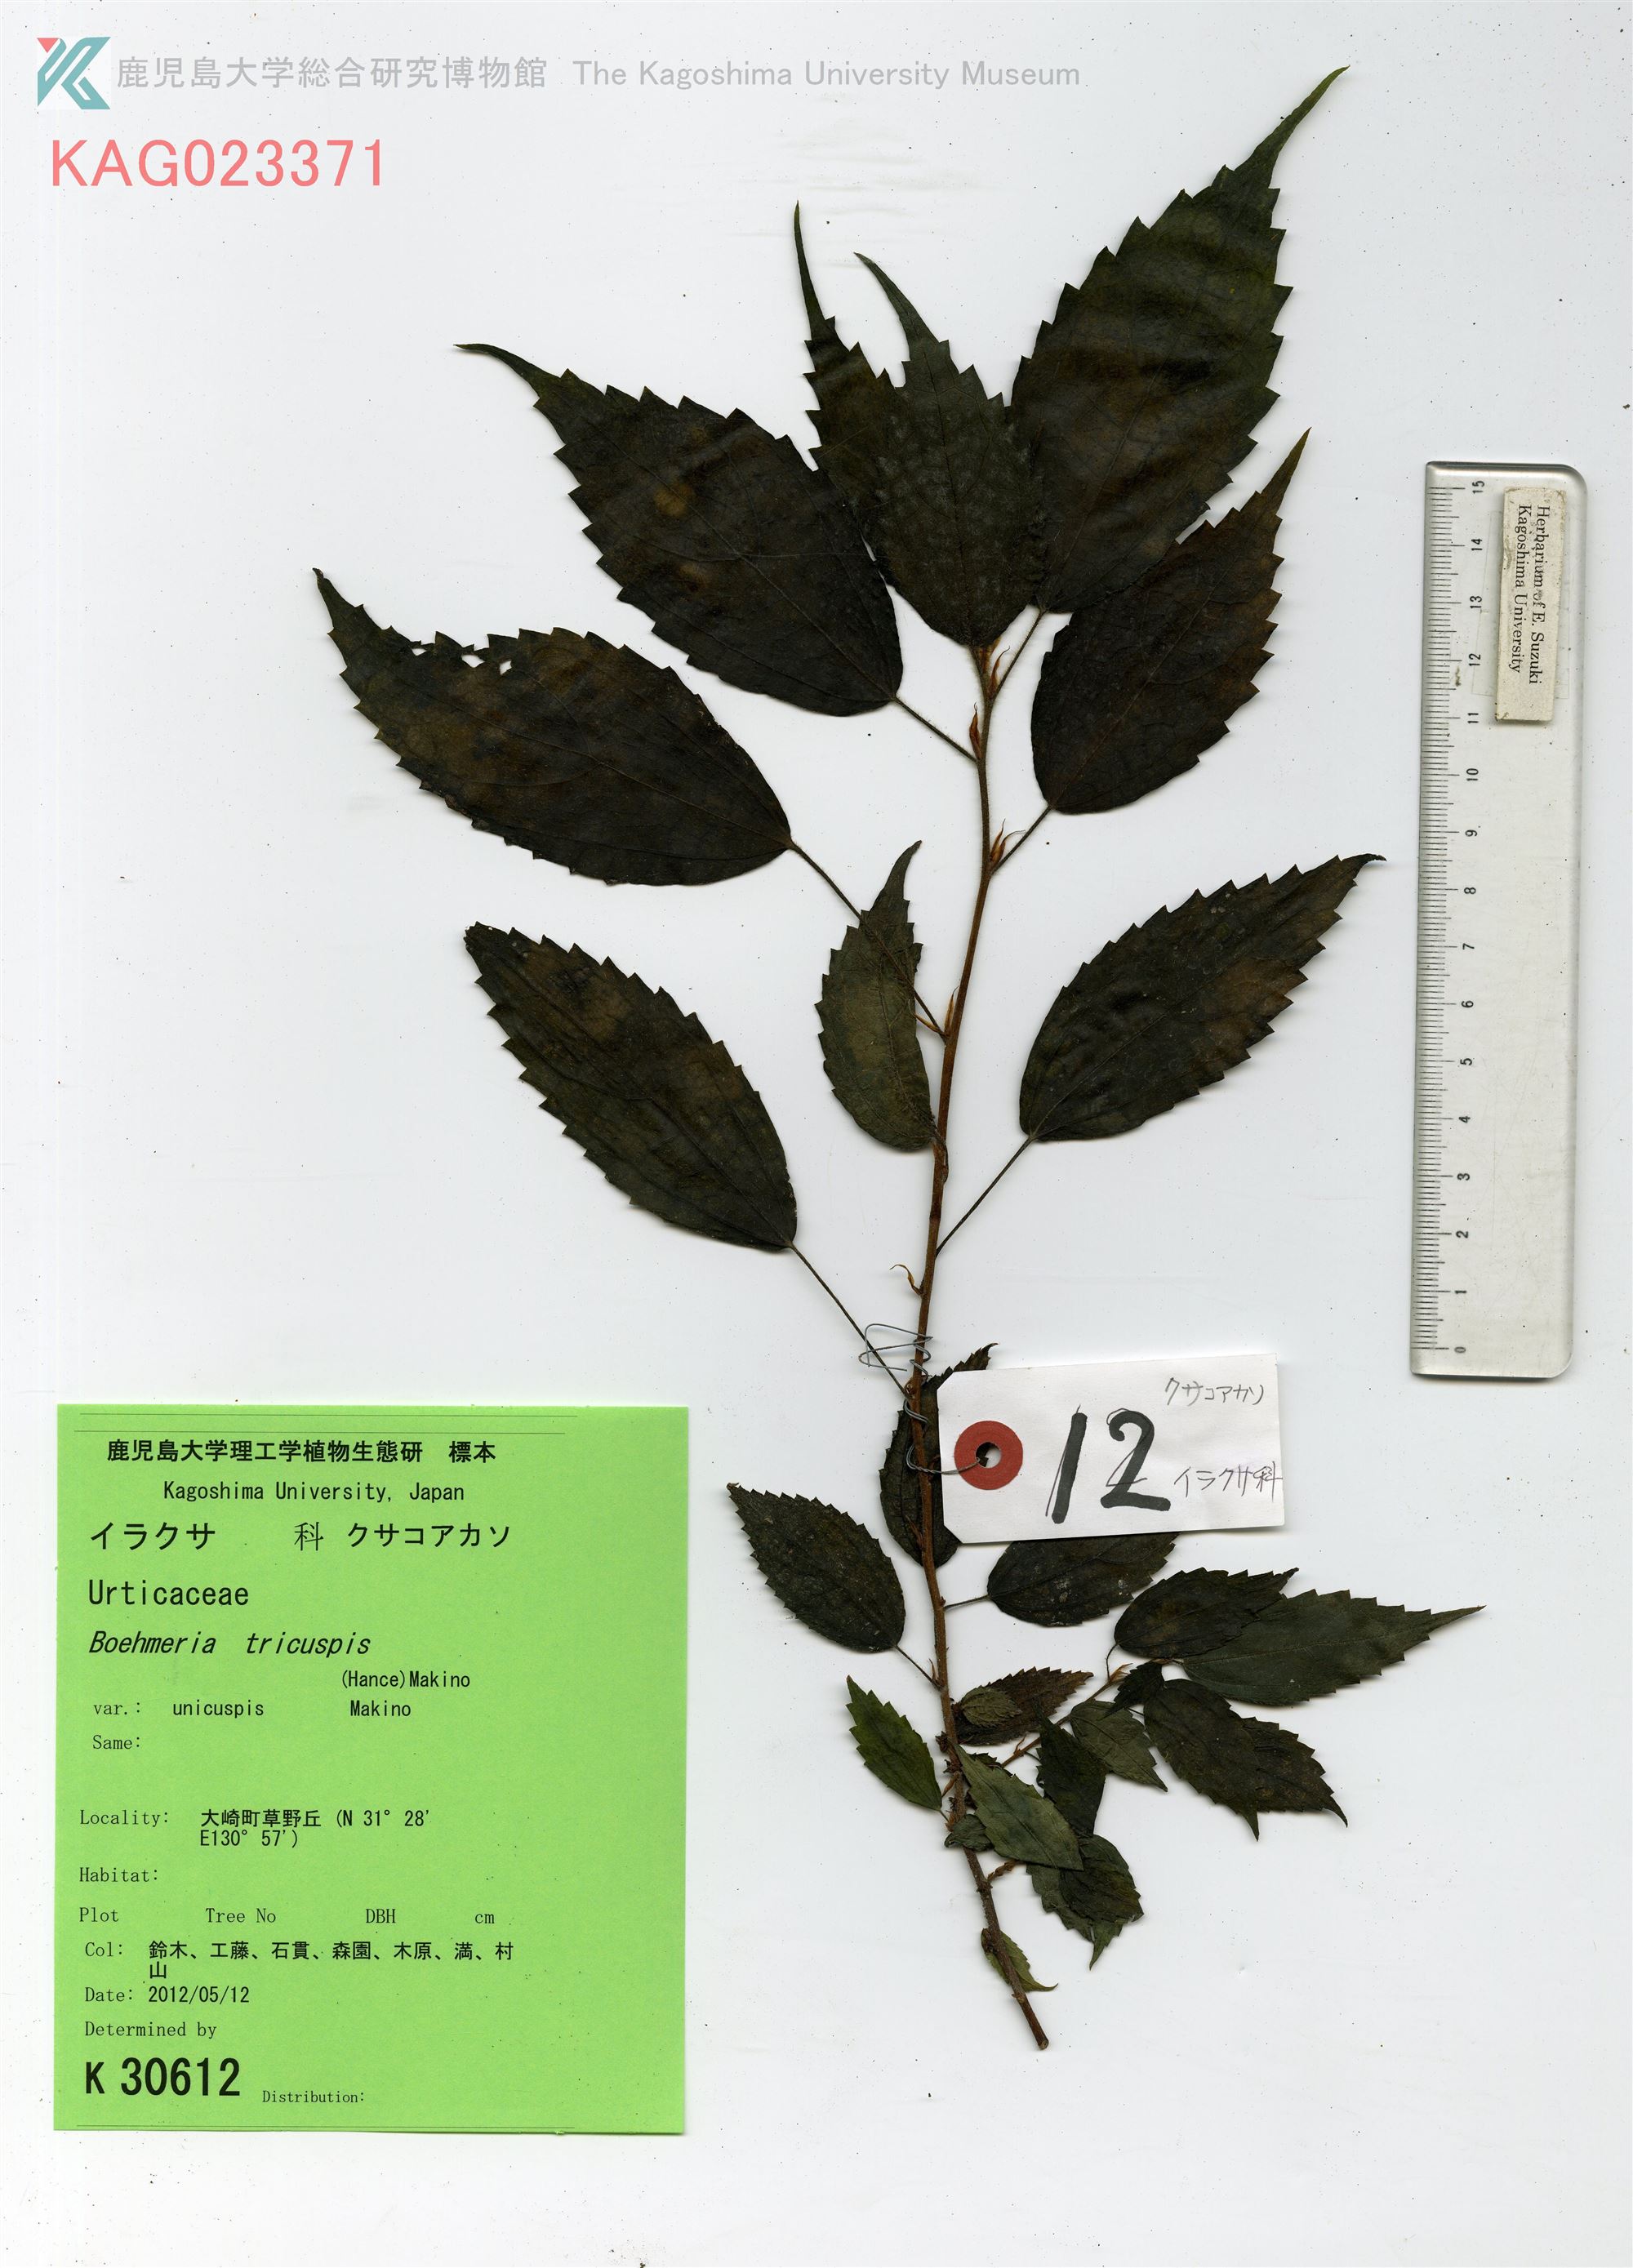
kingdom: Plantae
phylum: Tracheophyta
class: Magnoliopsida
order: Rosales
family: Urticaceae
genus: Oreocnide
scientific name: Oreocnide frutescens
